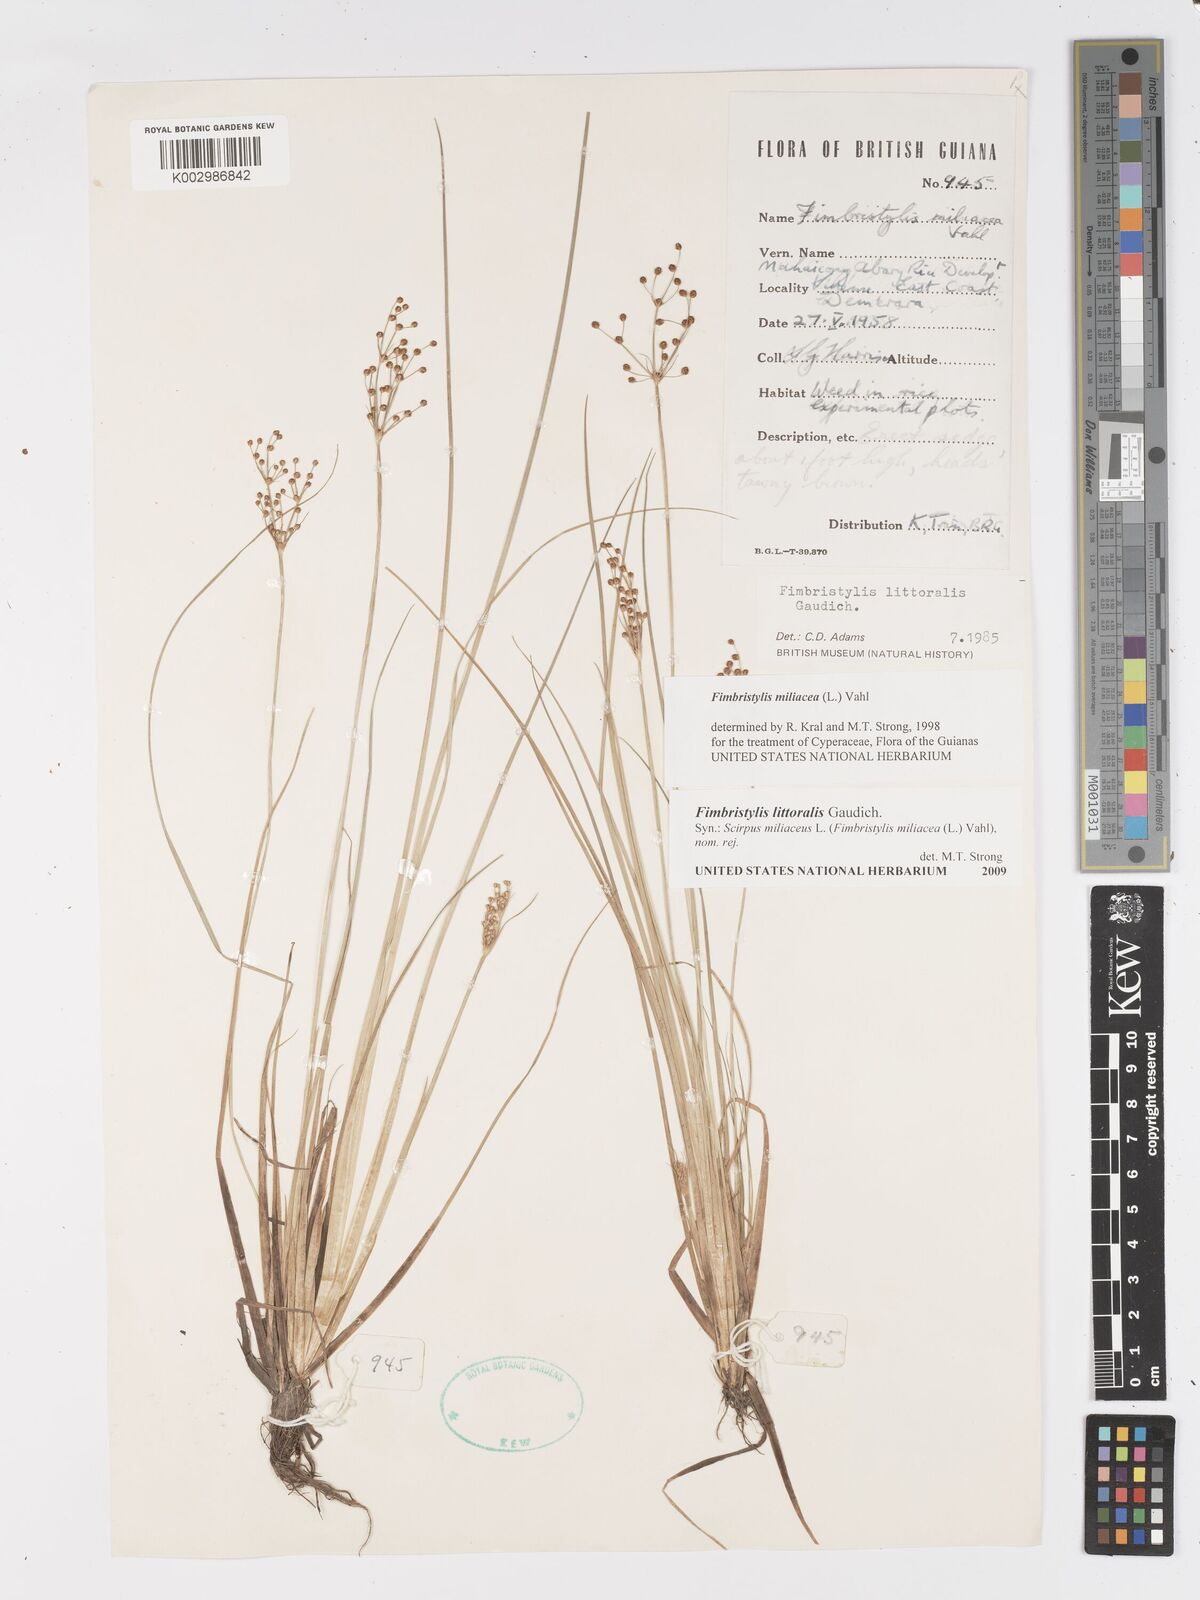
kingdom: Plantae
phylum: Tracheophyta
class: Liliopsida
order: Poales
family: Cyperaceae
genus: Fimbristylis
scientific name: Fimbristylis littoralis
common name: Fimbry
